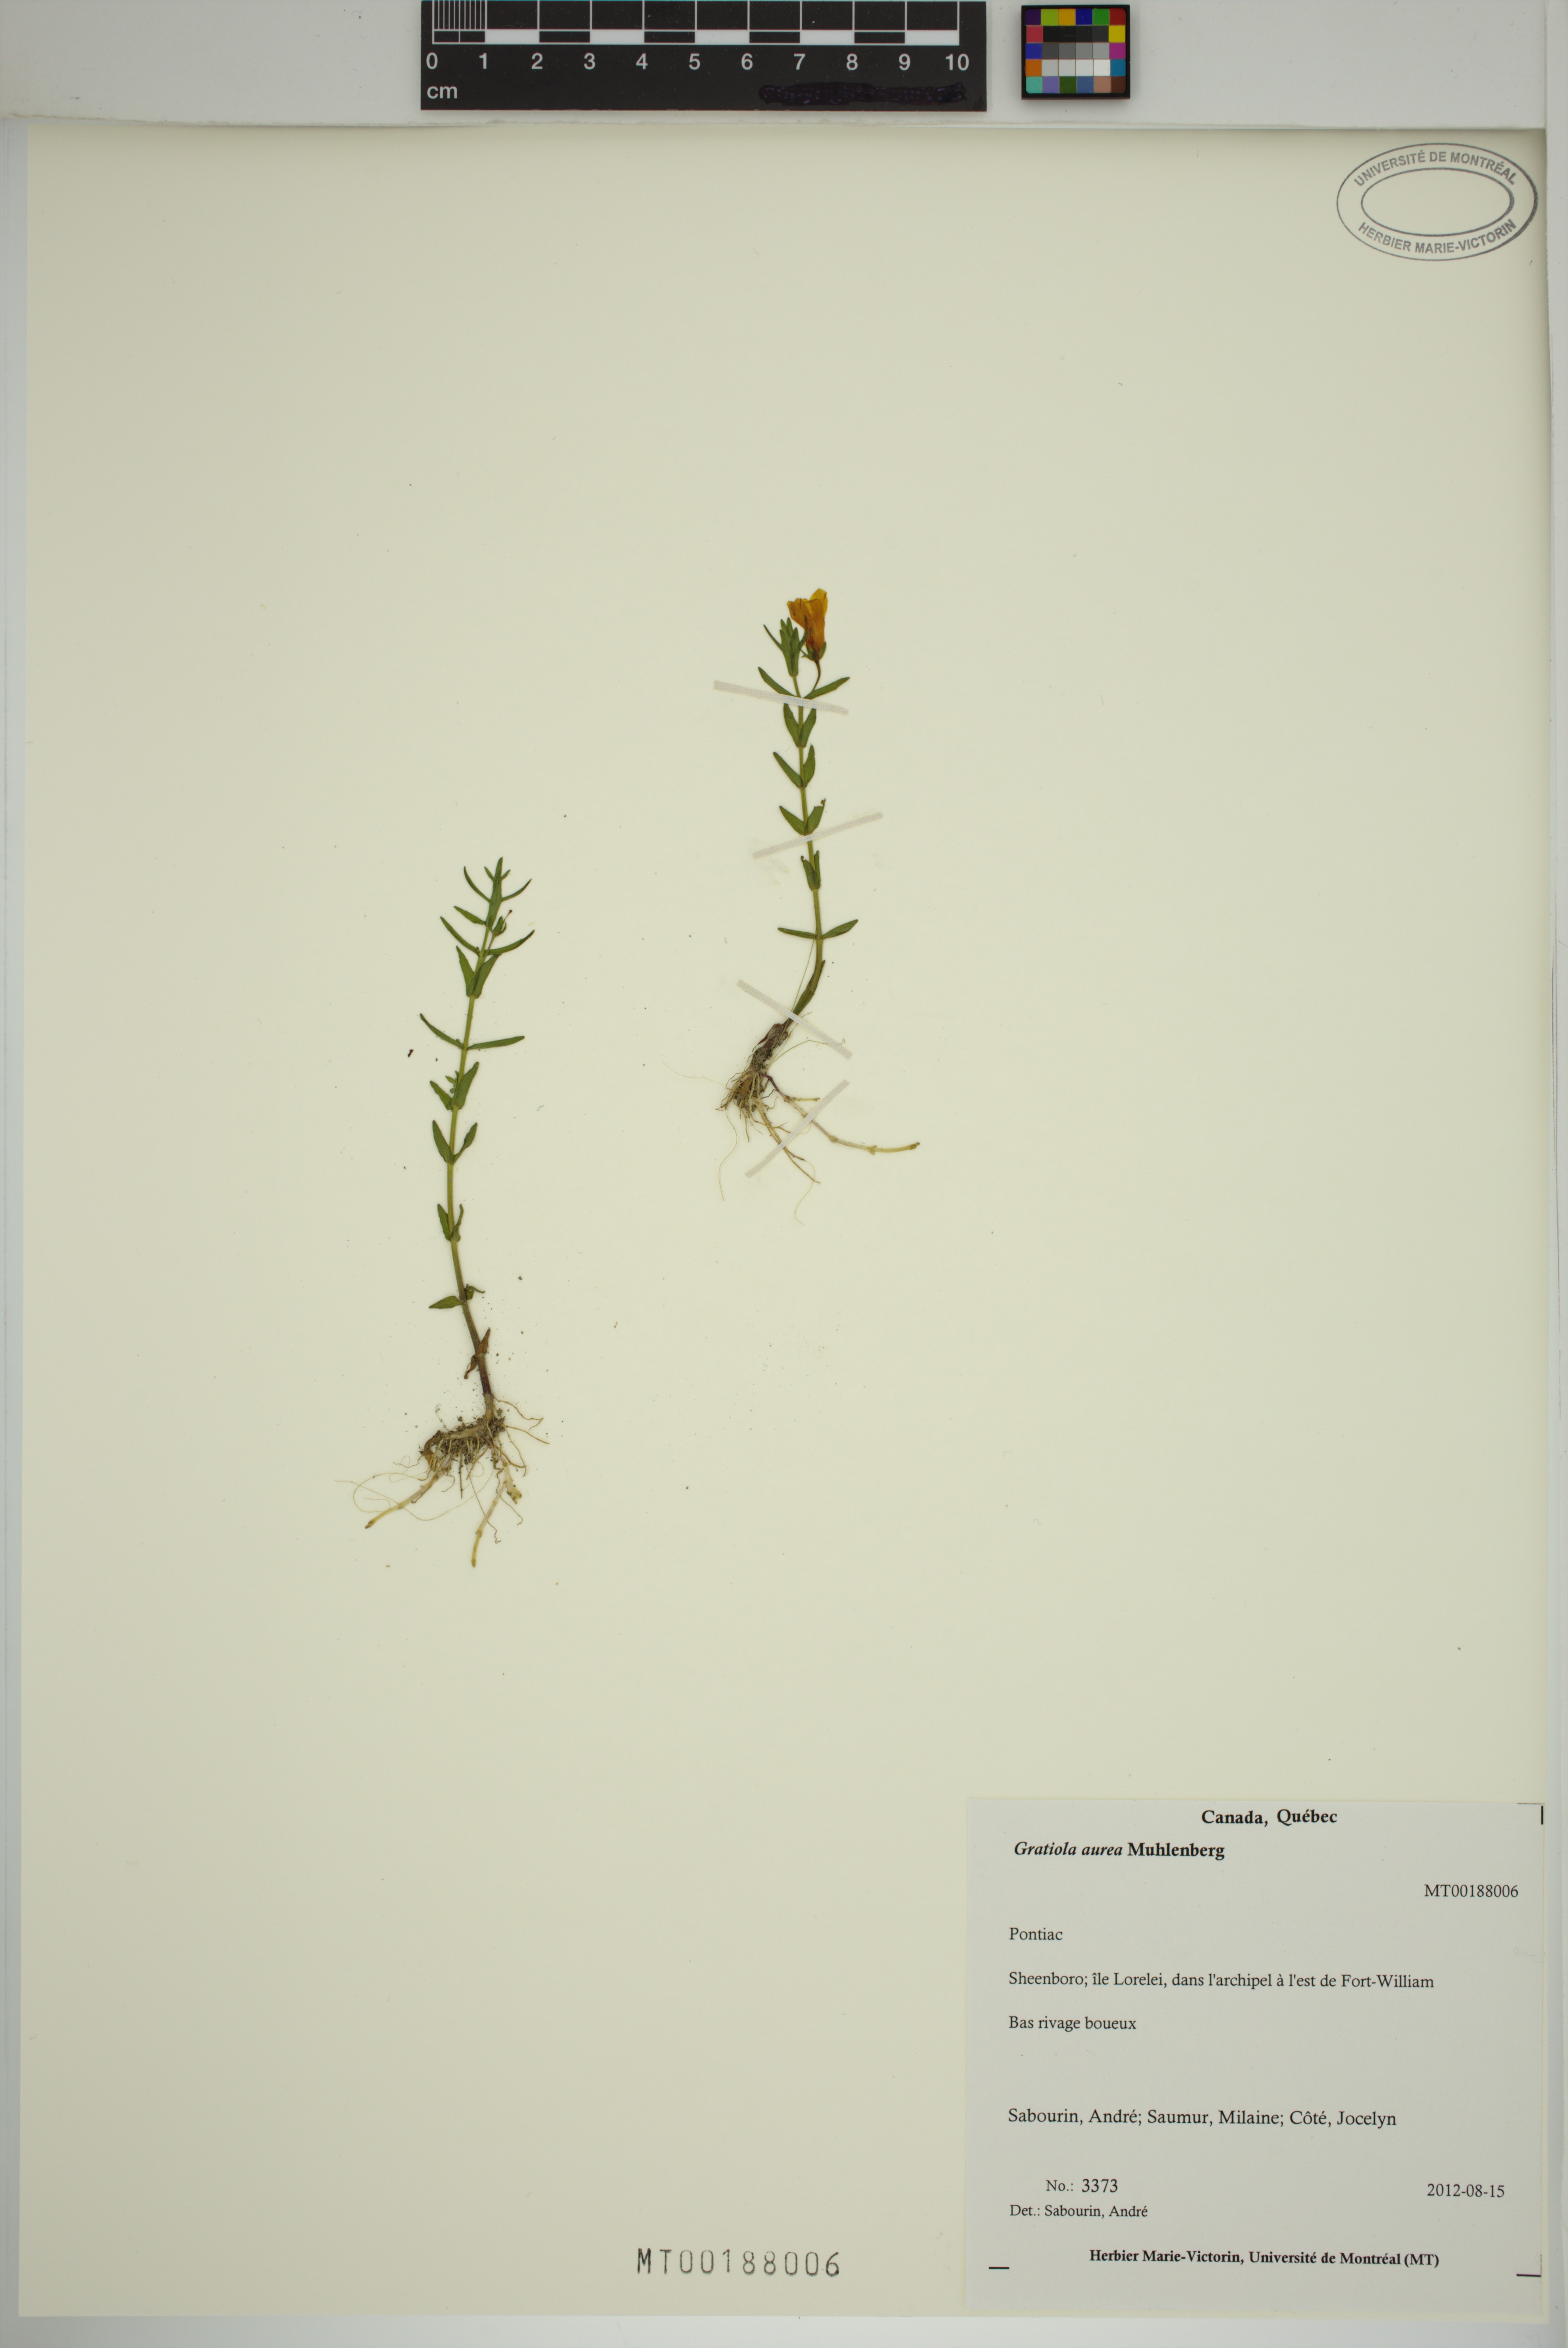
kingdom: Plantae
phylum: Tracheophyta
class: Magnoliopsida
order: Lamiales
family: Plantaginaceae
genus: Gratiola
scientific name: Gratiola lutea
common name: Golden hedge-hyssop
